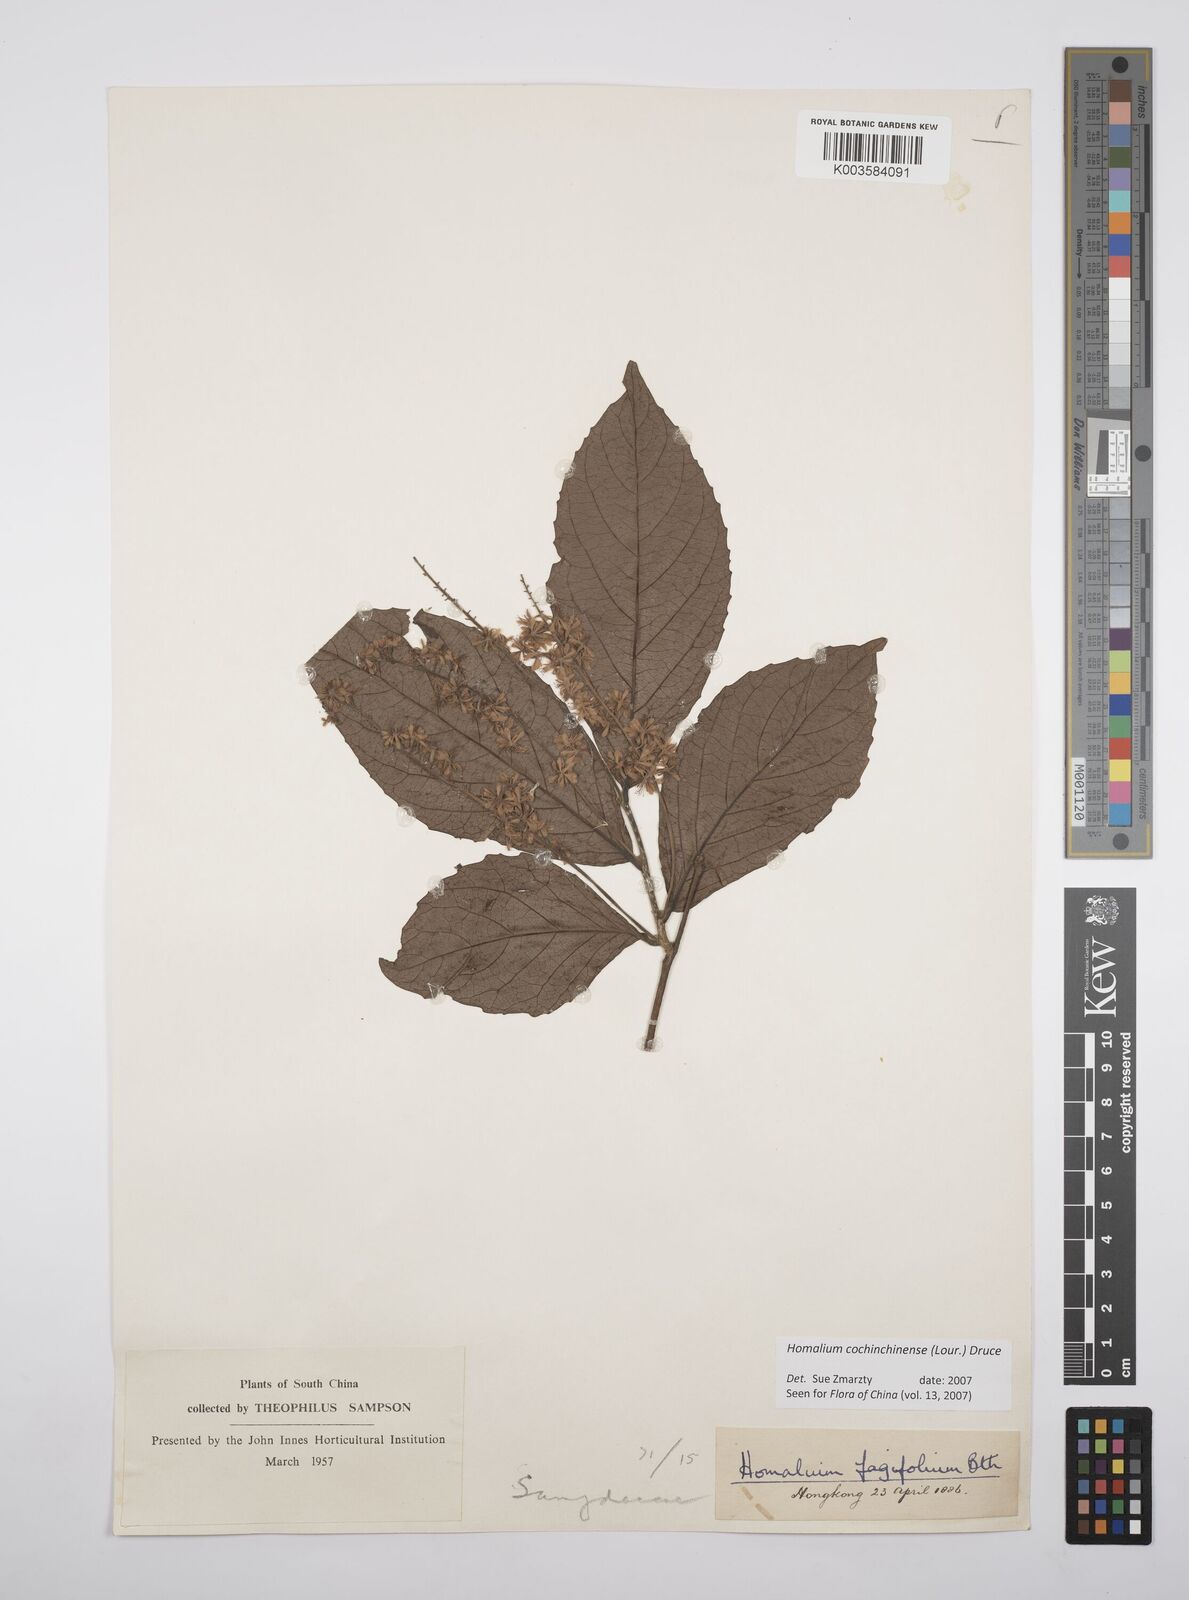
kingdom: Plantae
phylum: Tracheophyta
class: Magnoliopsida
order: Malpighiales
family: Salicaceae
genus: Homalium
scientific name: Homalium cochinchinensis
